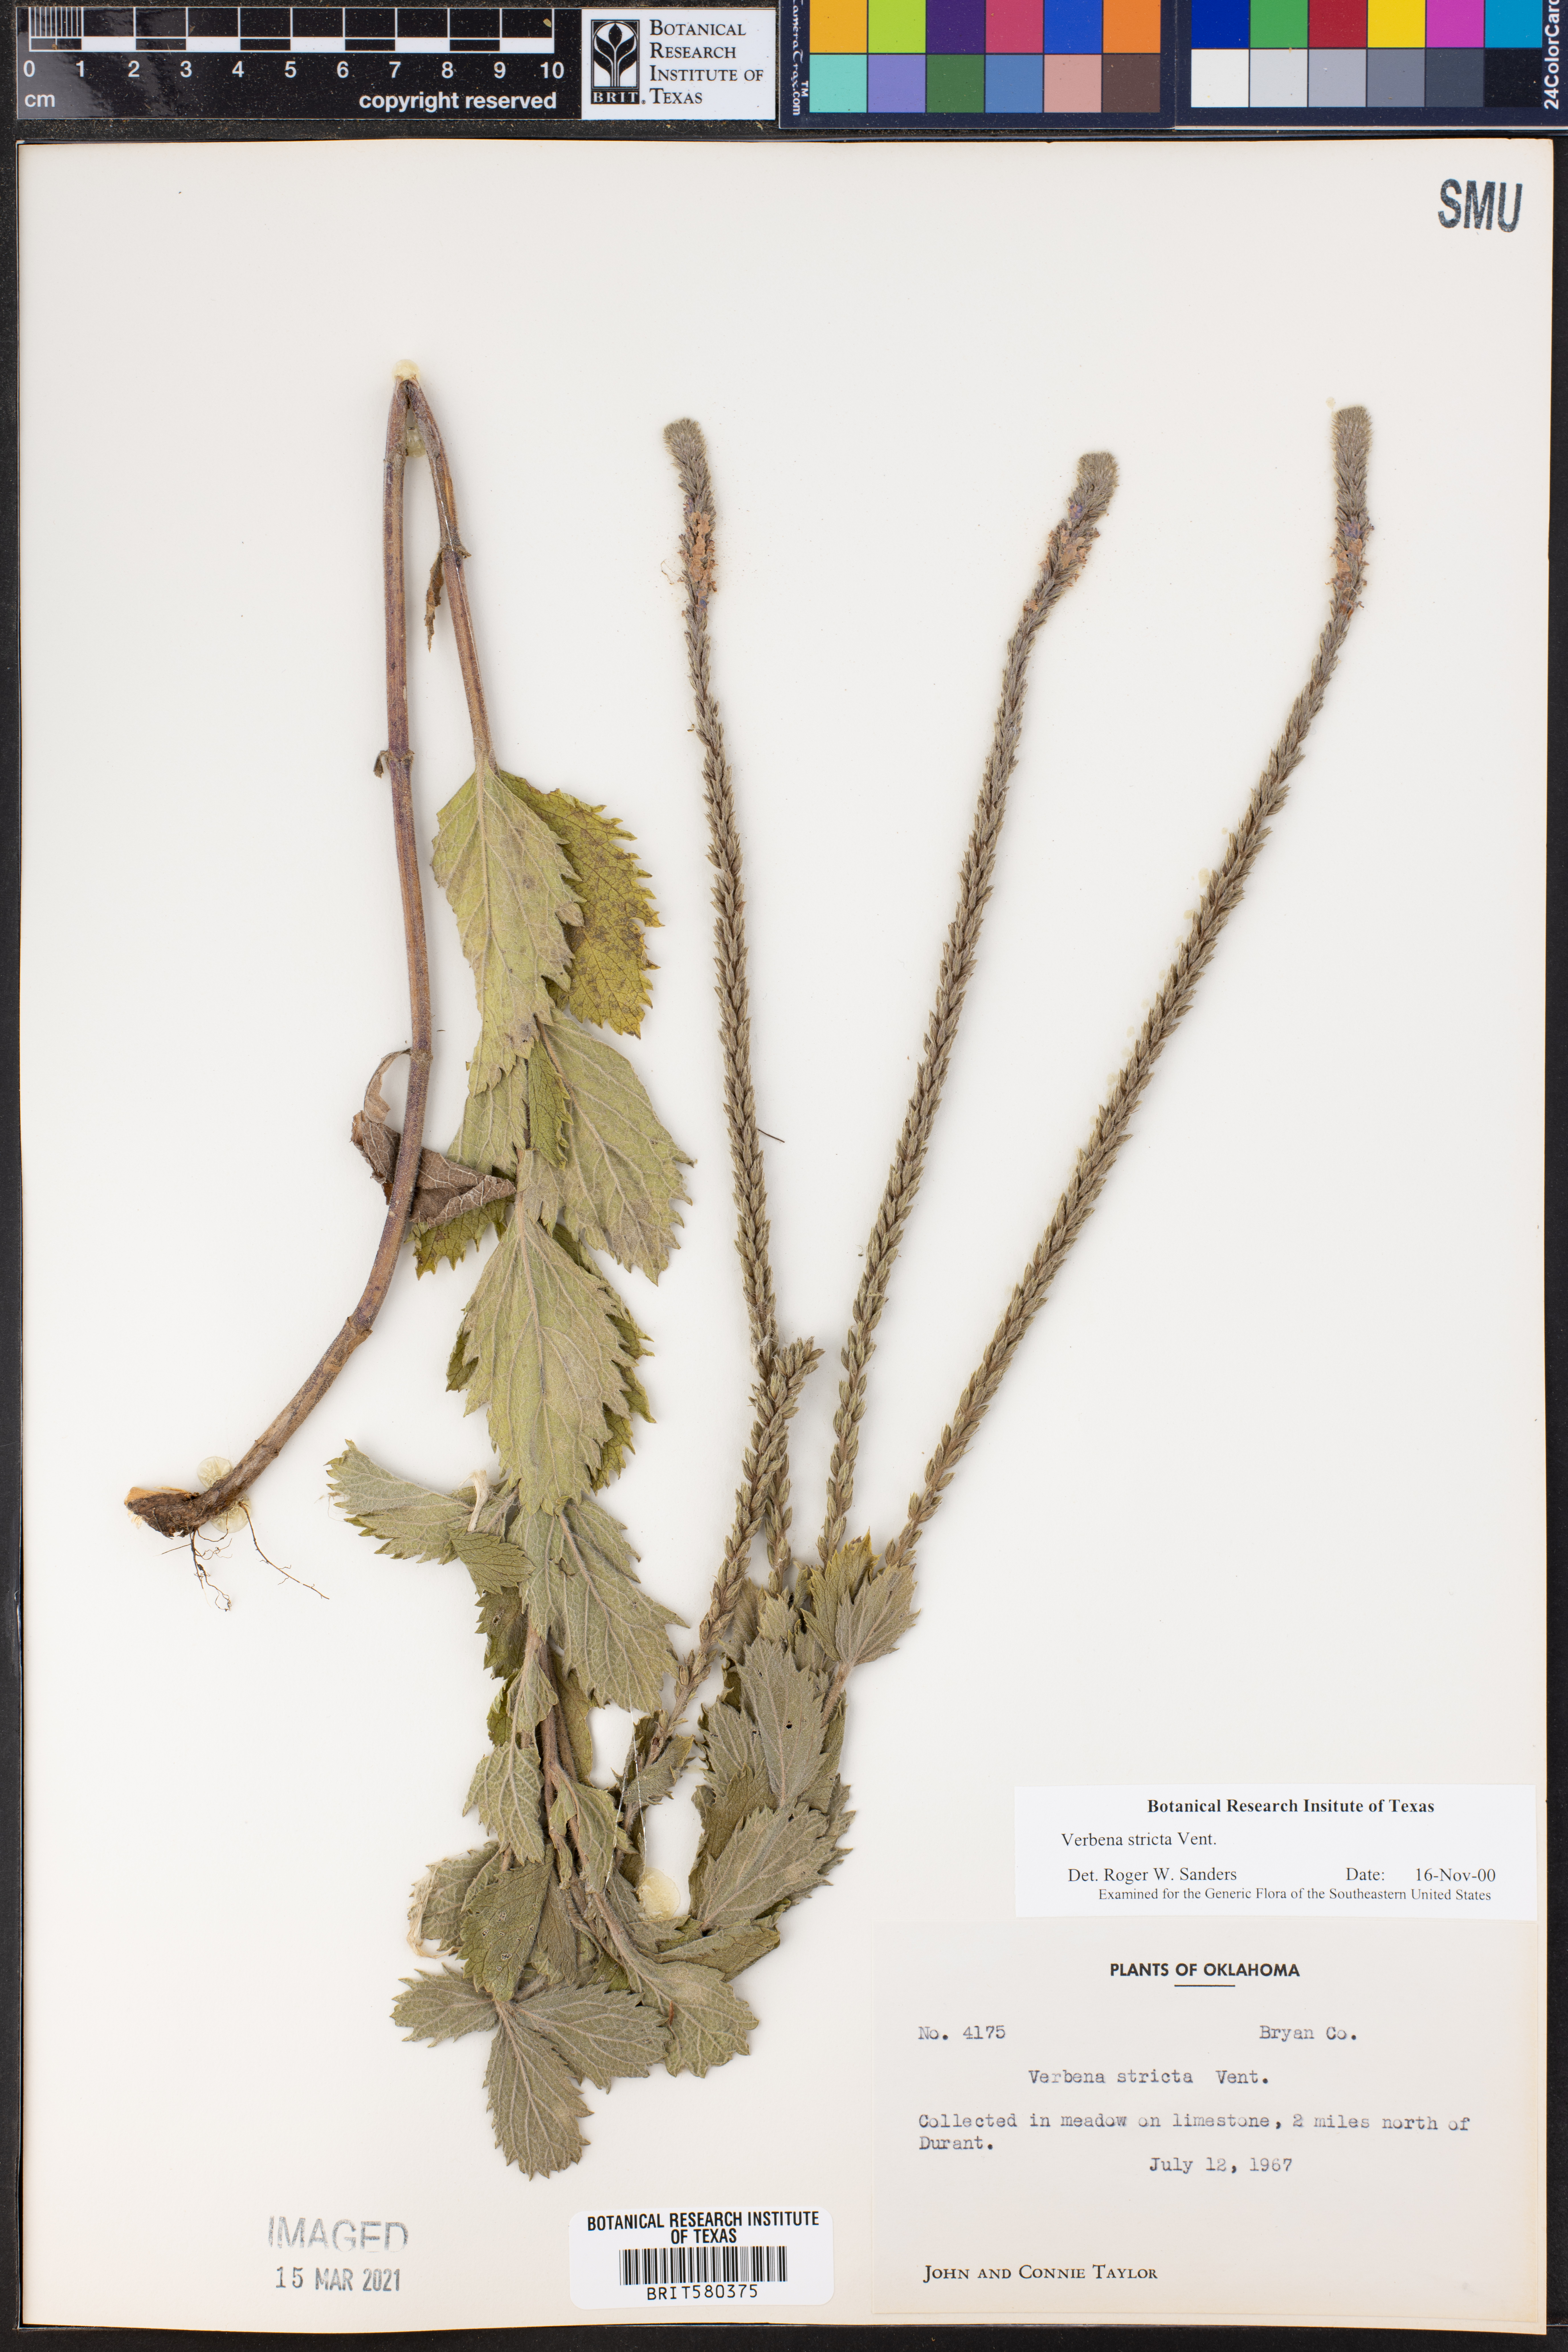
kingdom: Plantae
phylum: Tracheophyta
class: Magnoliopsida
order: Lamiales
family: Verbenaceae
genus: Verbena
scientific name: Verbena stricta
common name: Hoary vervain
